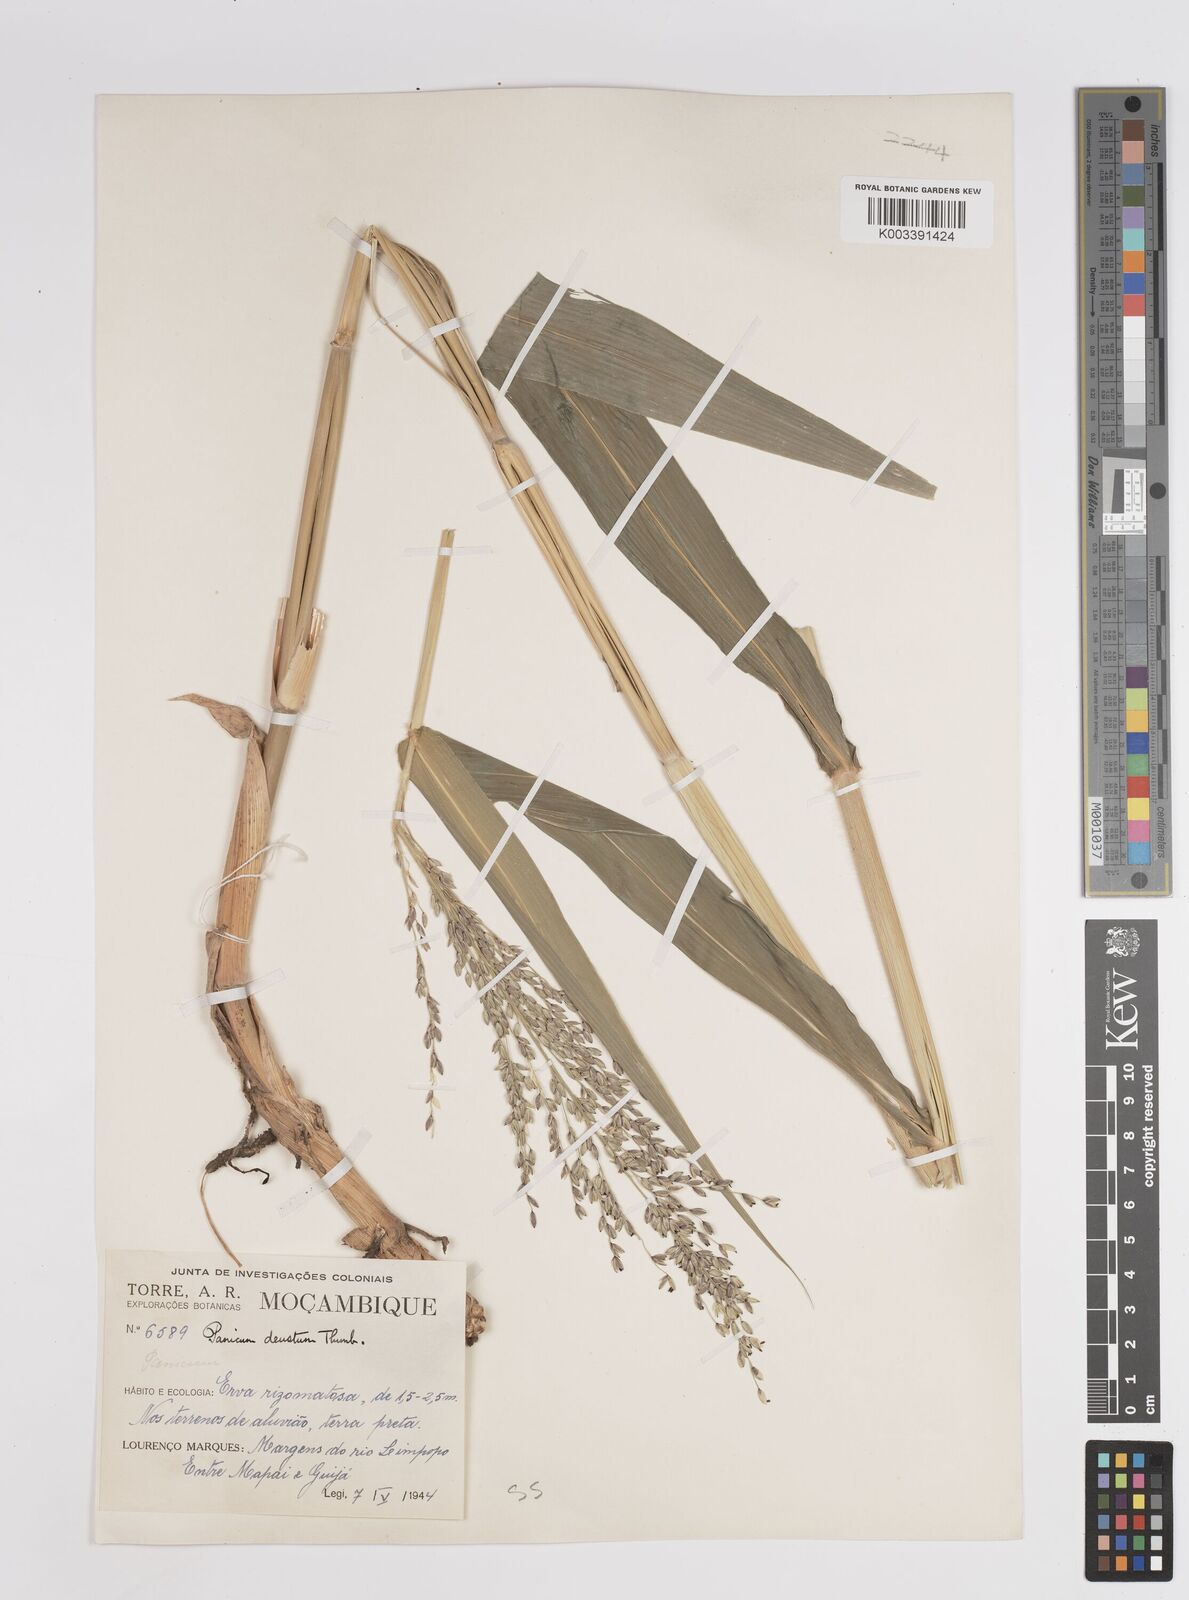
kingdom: Plantae
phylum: Tracheophyta
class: Liliopsida
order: Poales
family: Poaceae
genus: Panicum
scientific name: Panicum deustum
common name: Reed panicum
